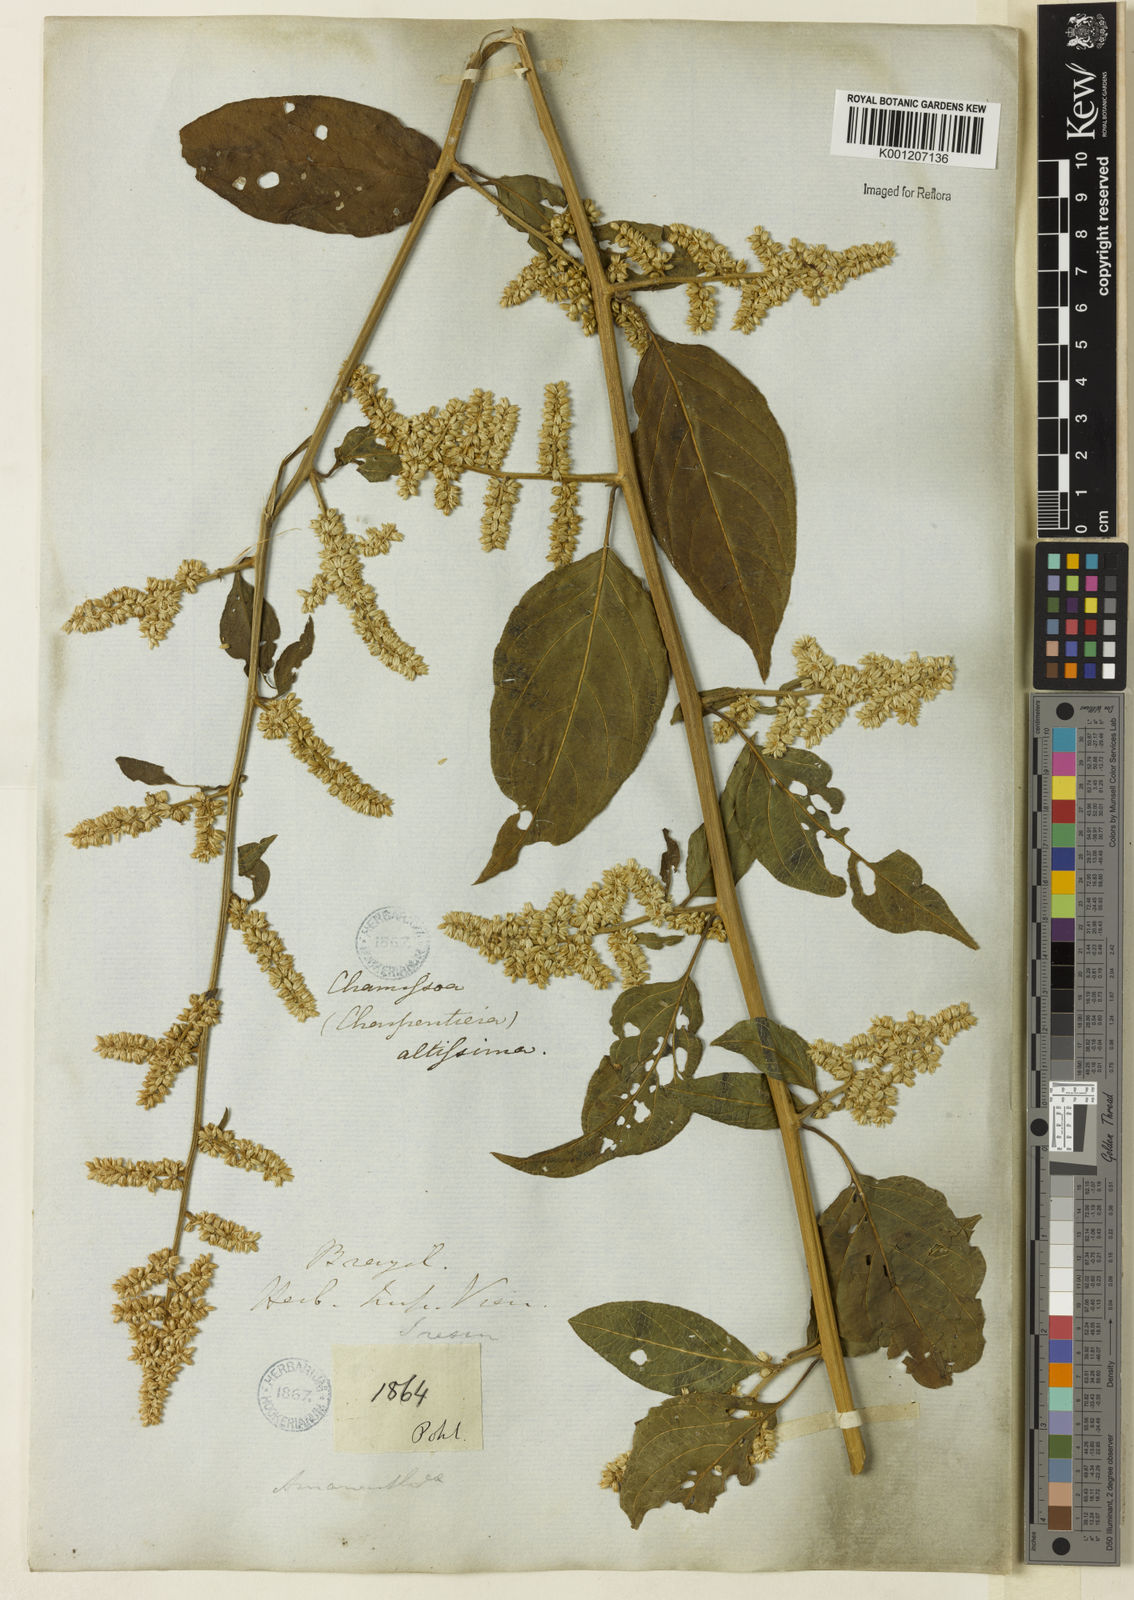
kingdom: Plantae
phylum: Tracheophyta
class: Magnoliopsida
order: Caryophyllales
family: Amaranthaceae
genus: Chamissoa
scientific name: Chamissoa altissima
